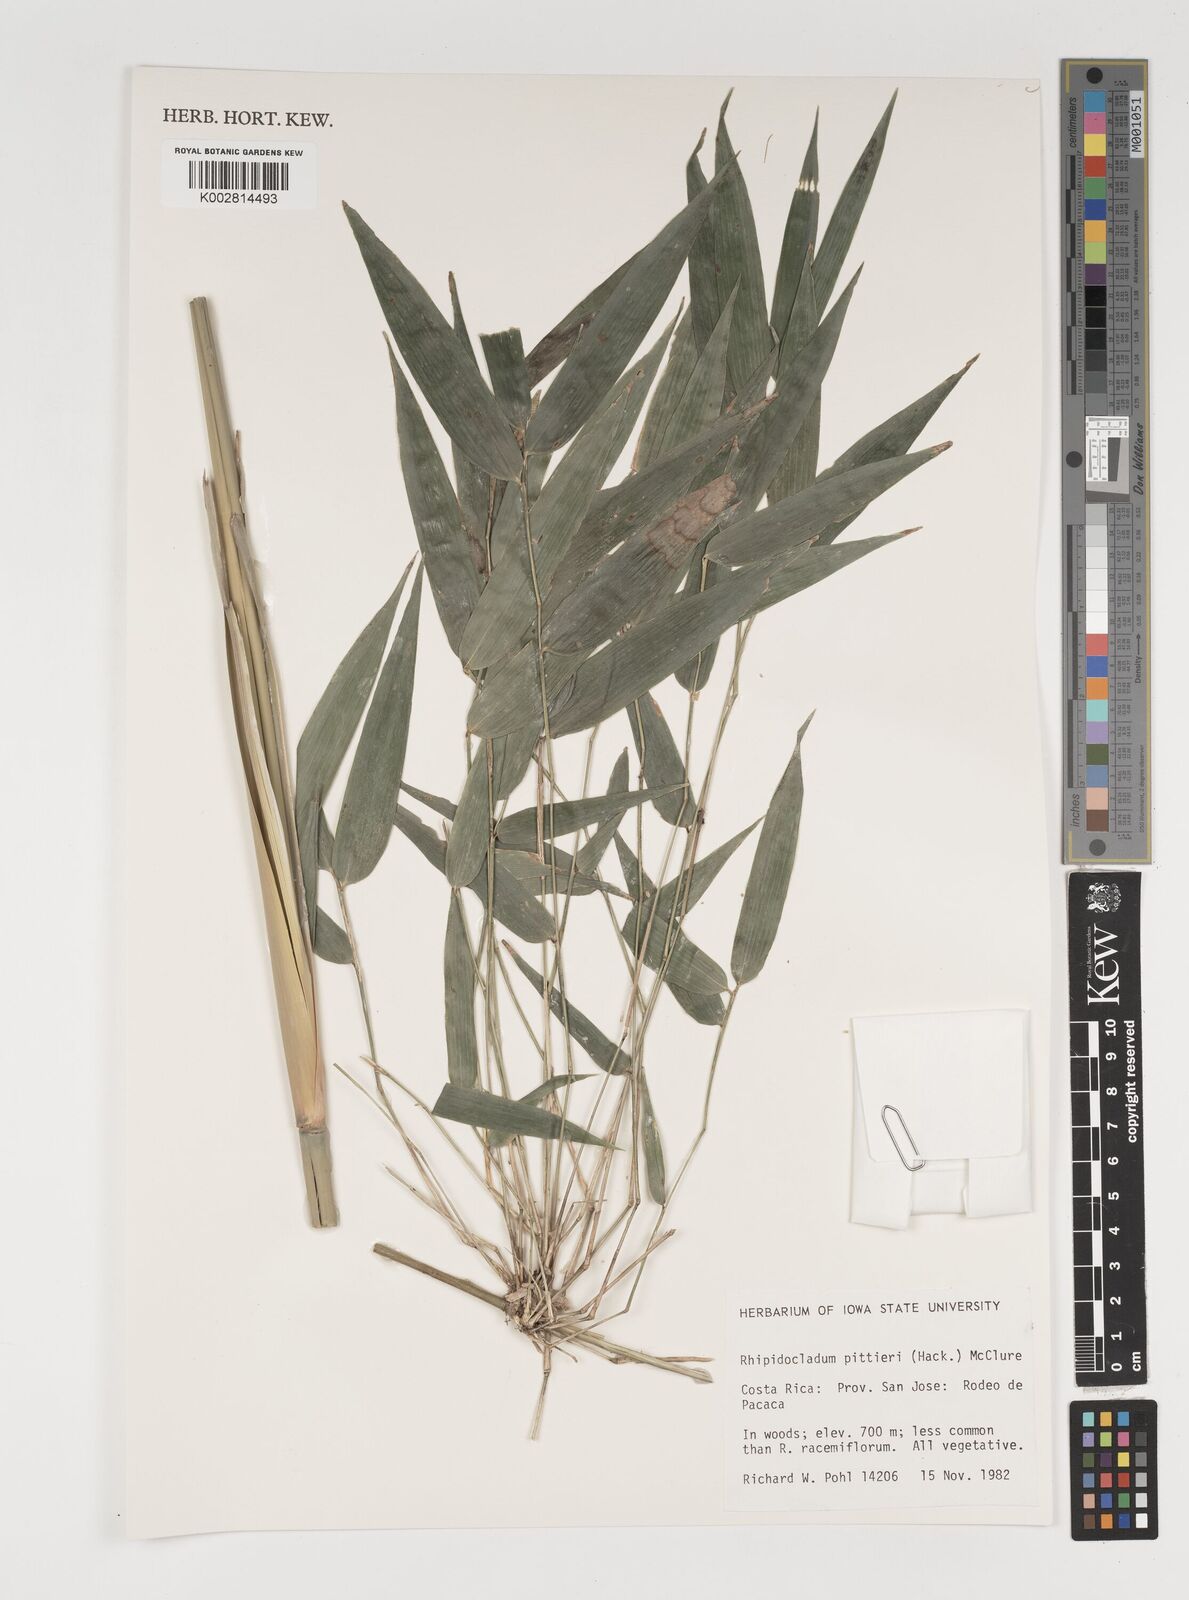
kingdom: Plantae
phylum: Tracheophyta
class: Liliopsida
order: Poales
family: Poaceae
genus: Rhipidocladum
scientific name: Rhipidocladum pittieri
